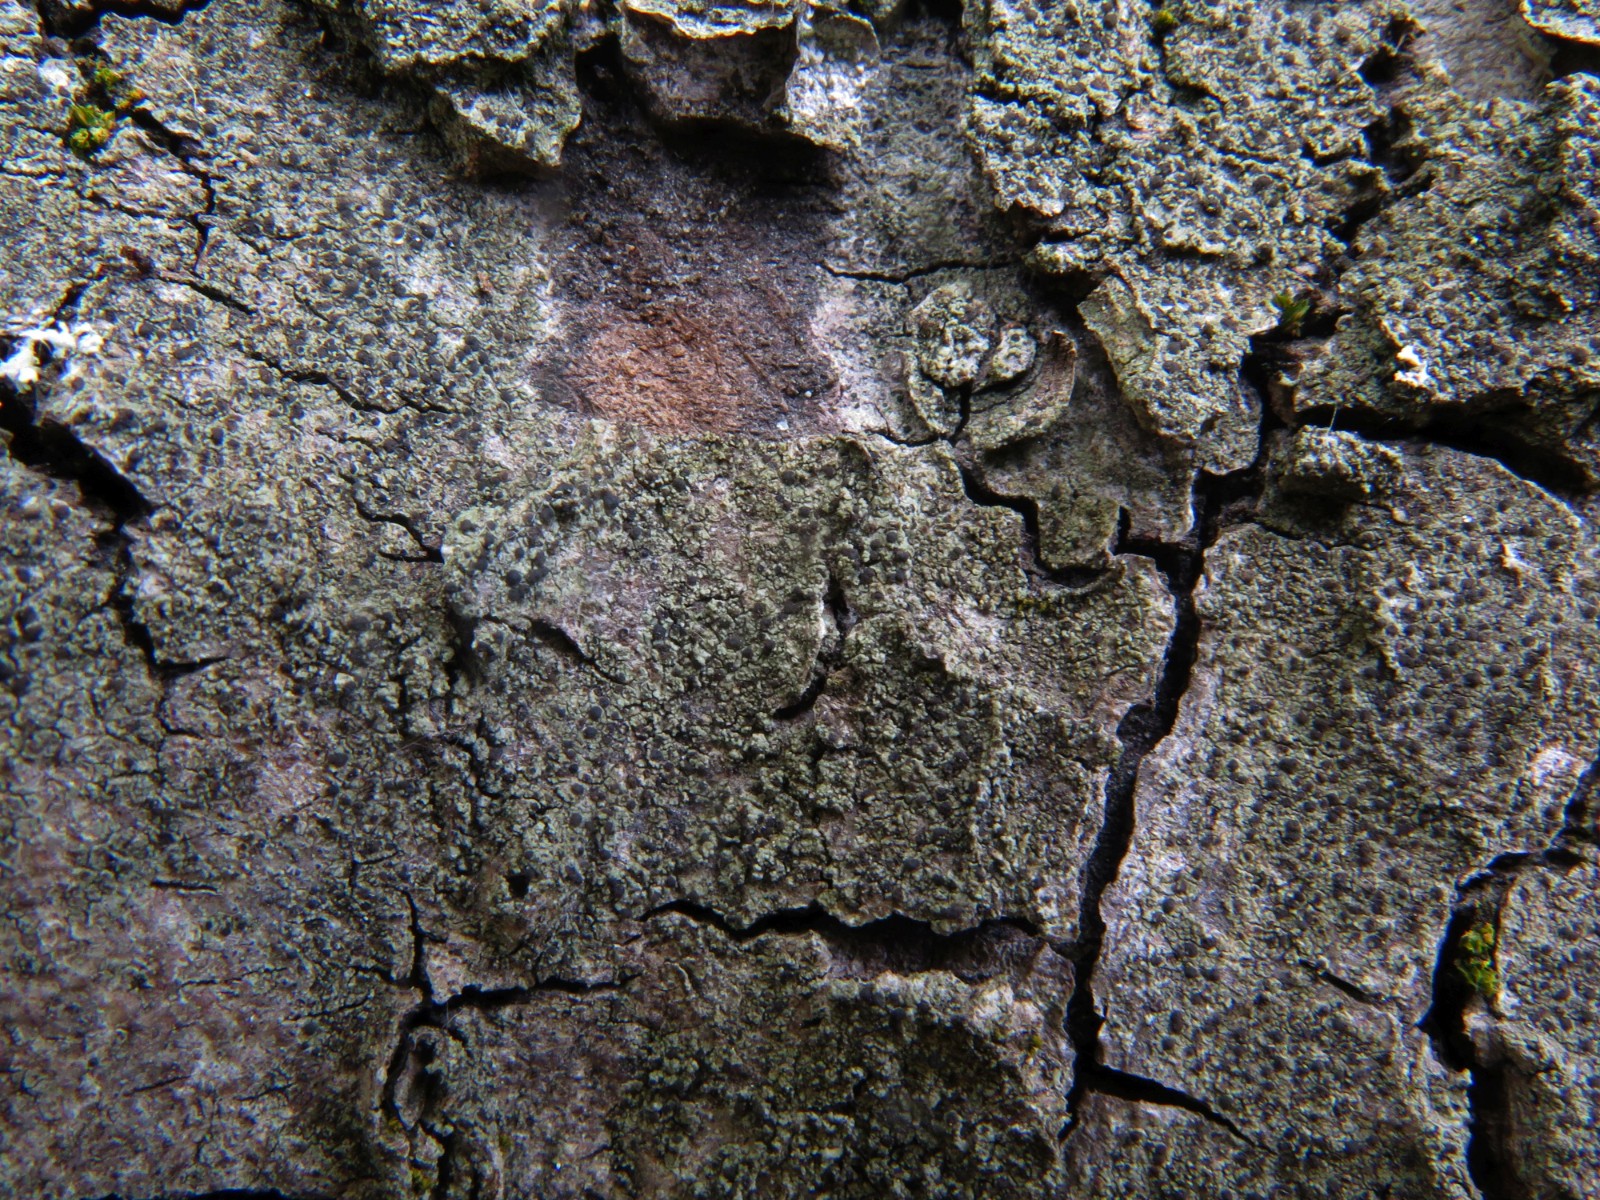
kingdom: Fungi
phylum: Ascomycota
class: Lecanoromycetes
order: Caliciales
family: Caliciaceae
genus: Amandinea
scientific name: Amandinea punctata
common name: liden sortskivelav
